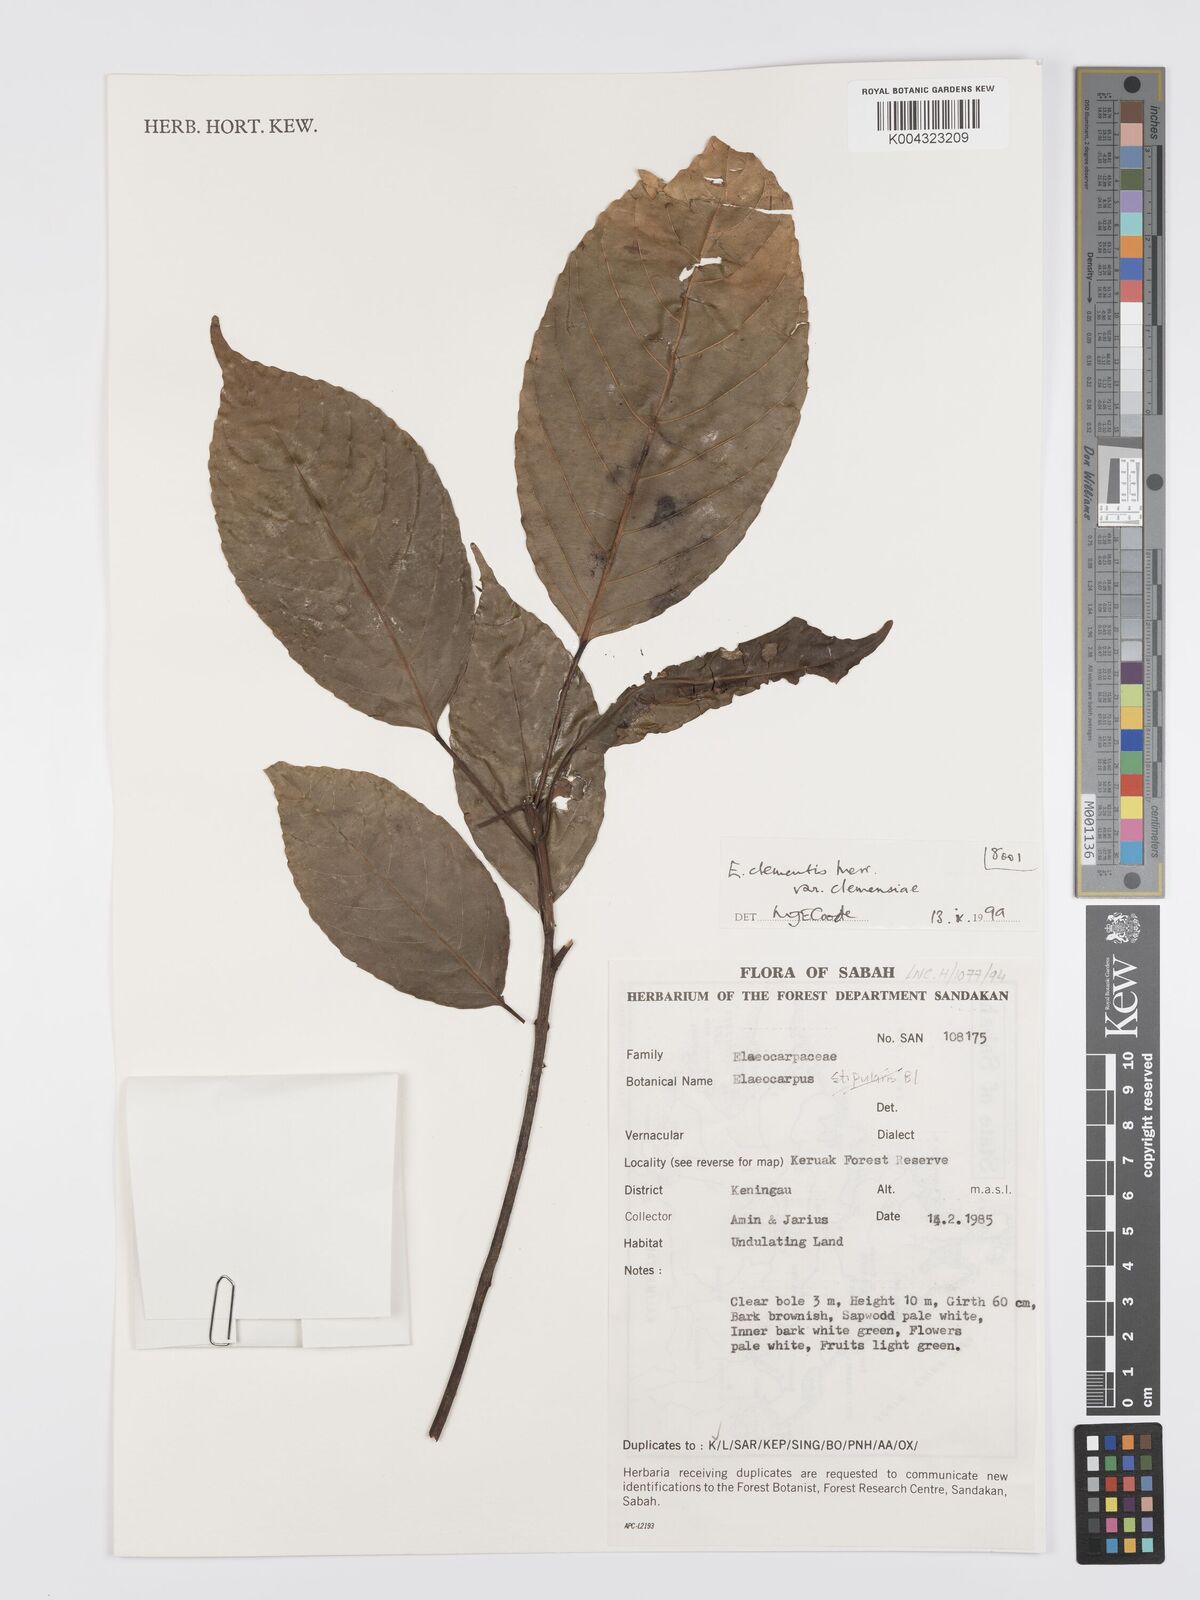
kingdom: Plantae
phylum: Tracheophyta
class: Magnoliopsida
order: Oxalidales
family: Elaeocarpaceae
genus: Elaeocarpus
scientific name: Elaeocarpus clementis
